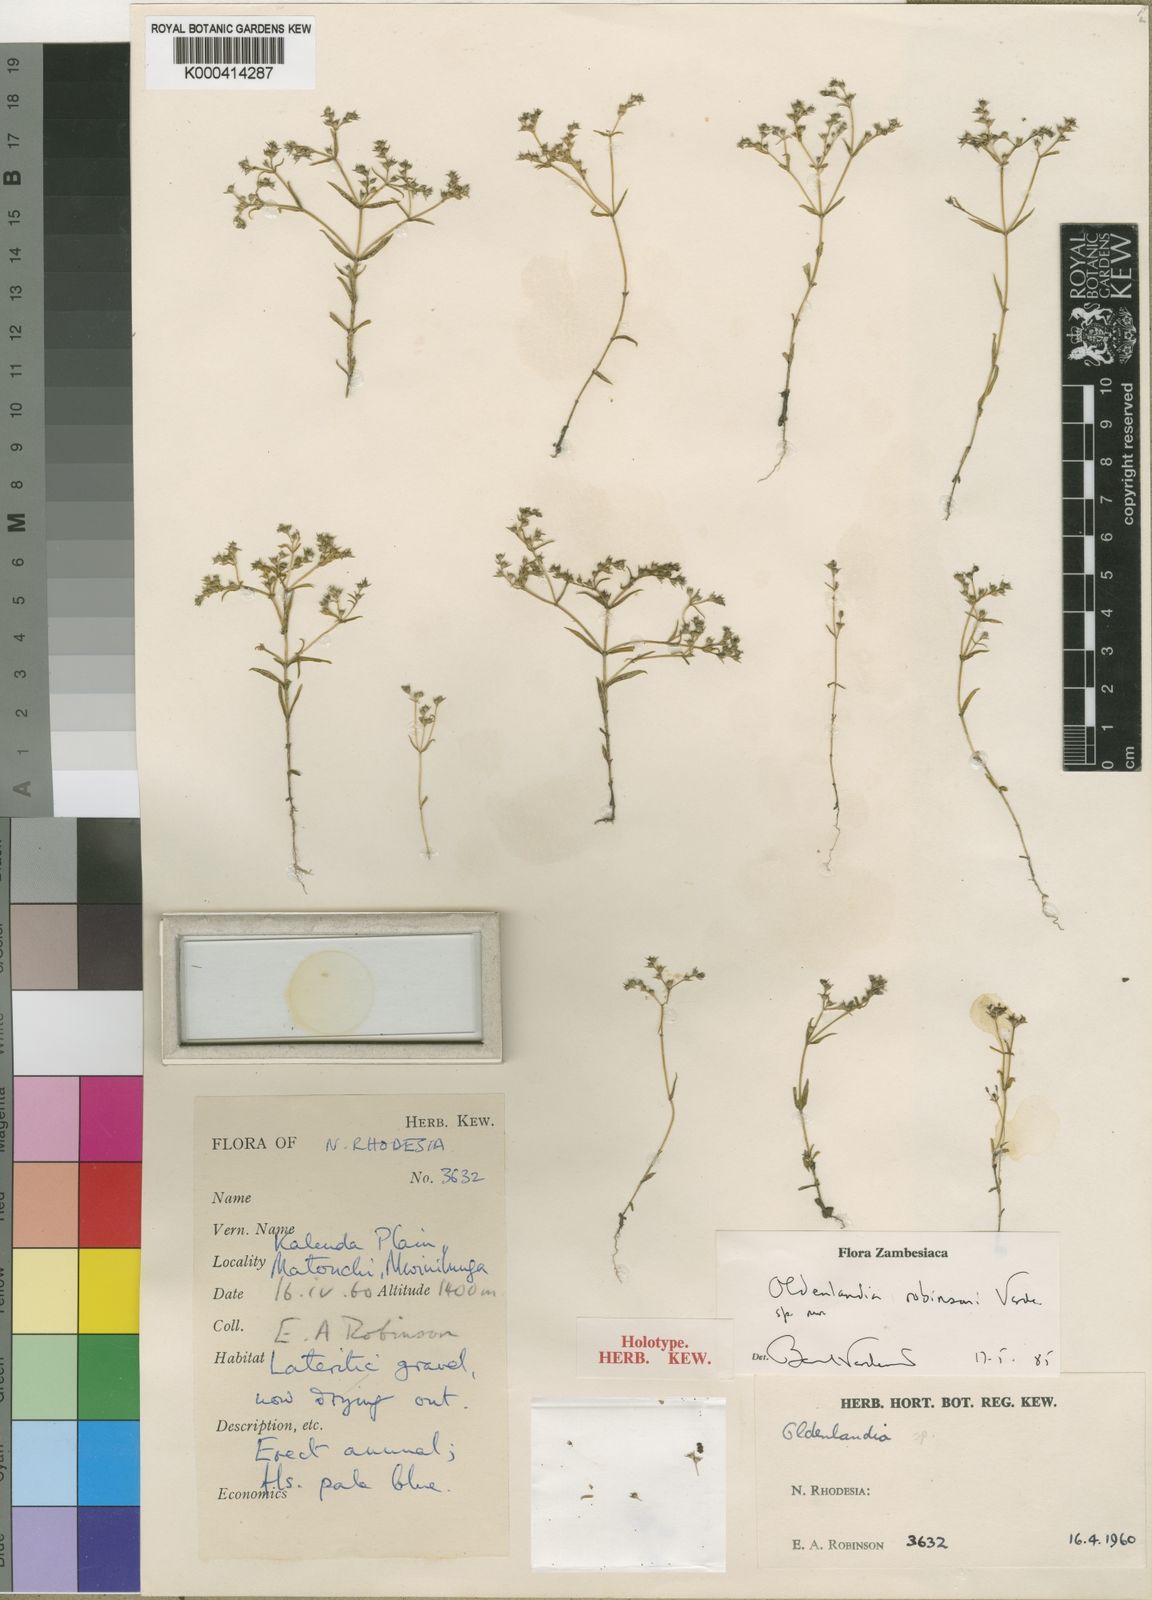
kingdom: Plantae
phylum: Tracheophyta
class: Magnoliopsida
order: Gentianales
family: Rubiaceae
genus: Oldenlandia
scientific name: Oldenlandia densa
